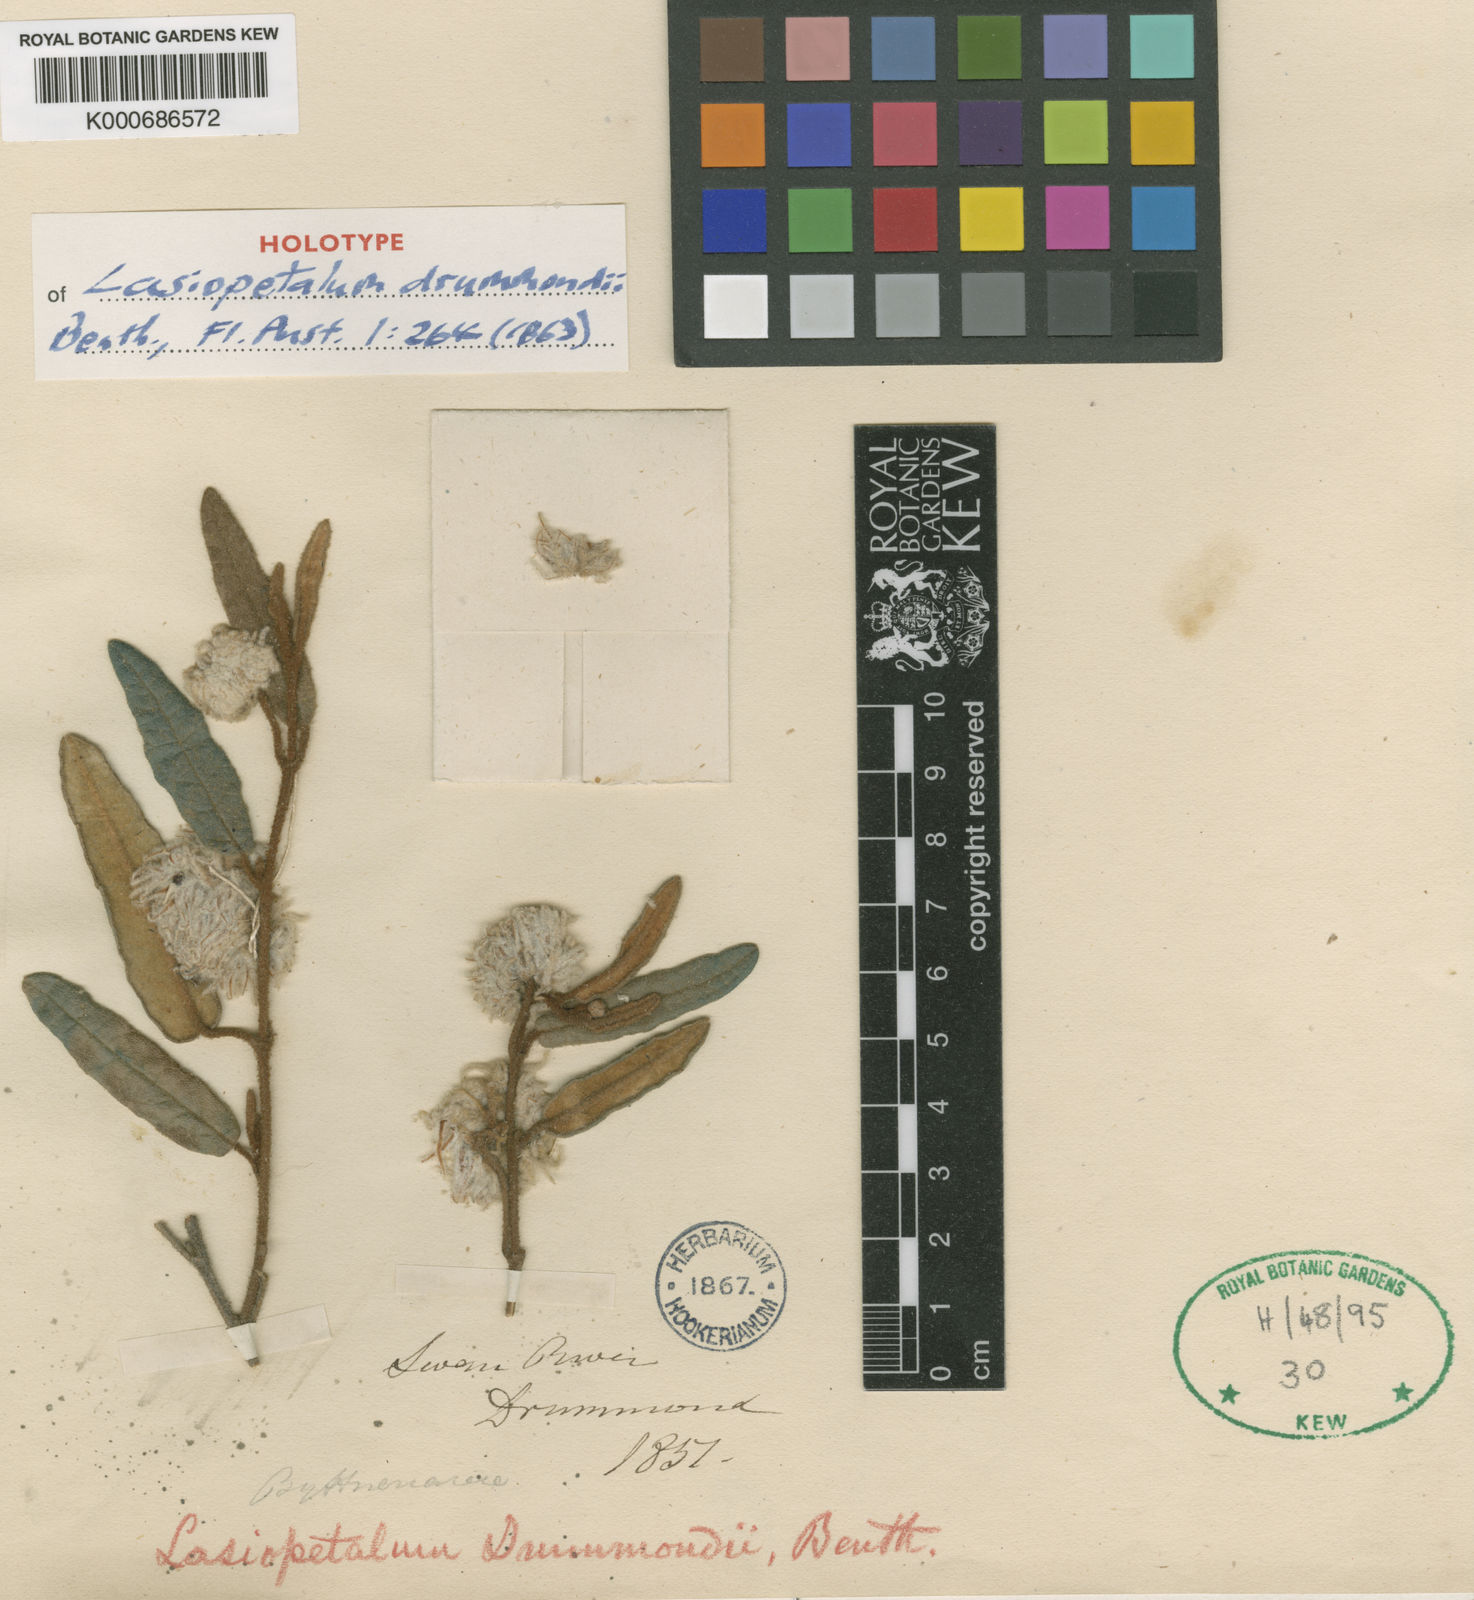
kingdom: Plantae
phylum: Tracheophyta
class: Magnoliopsida
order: Malvales
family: Malvaceae
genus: Lasiopetalum
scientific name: Lasiopetalum drummondii
